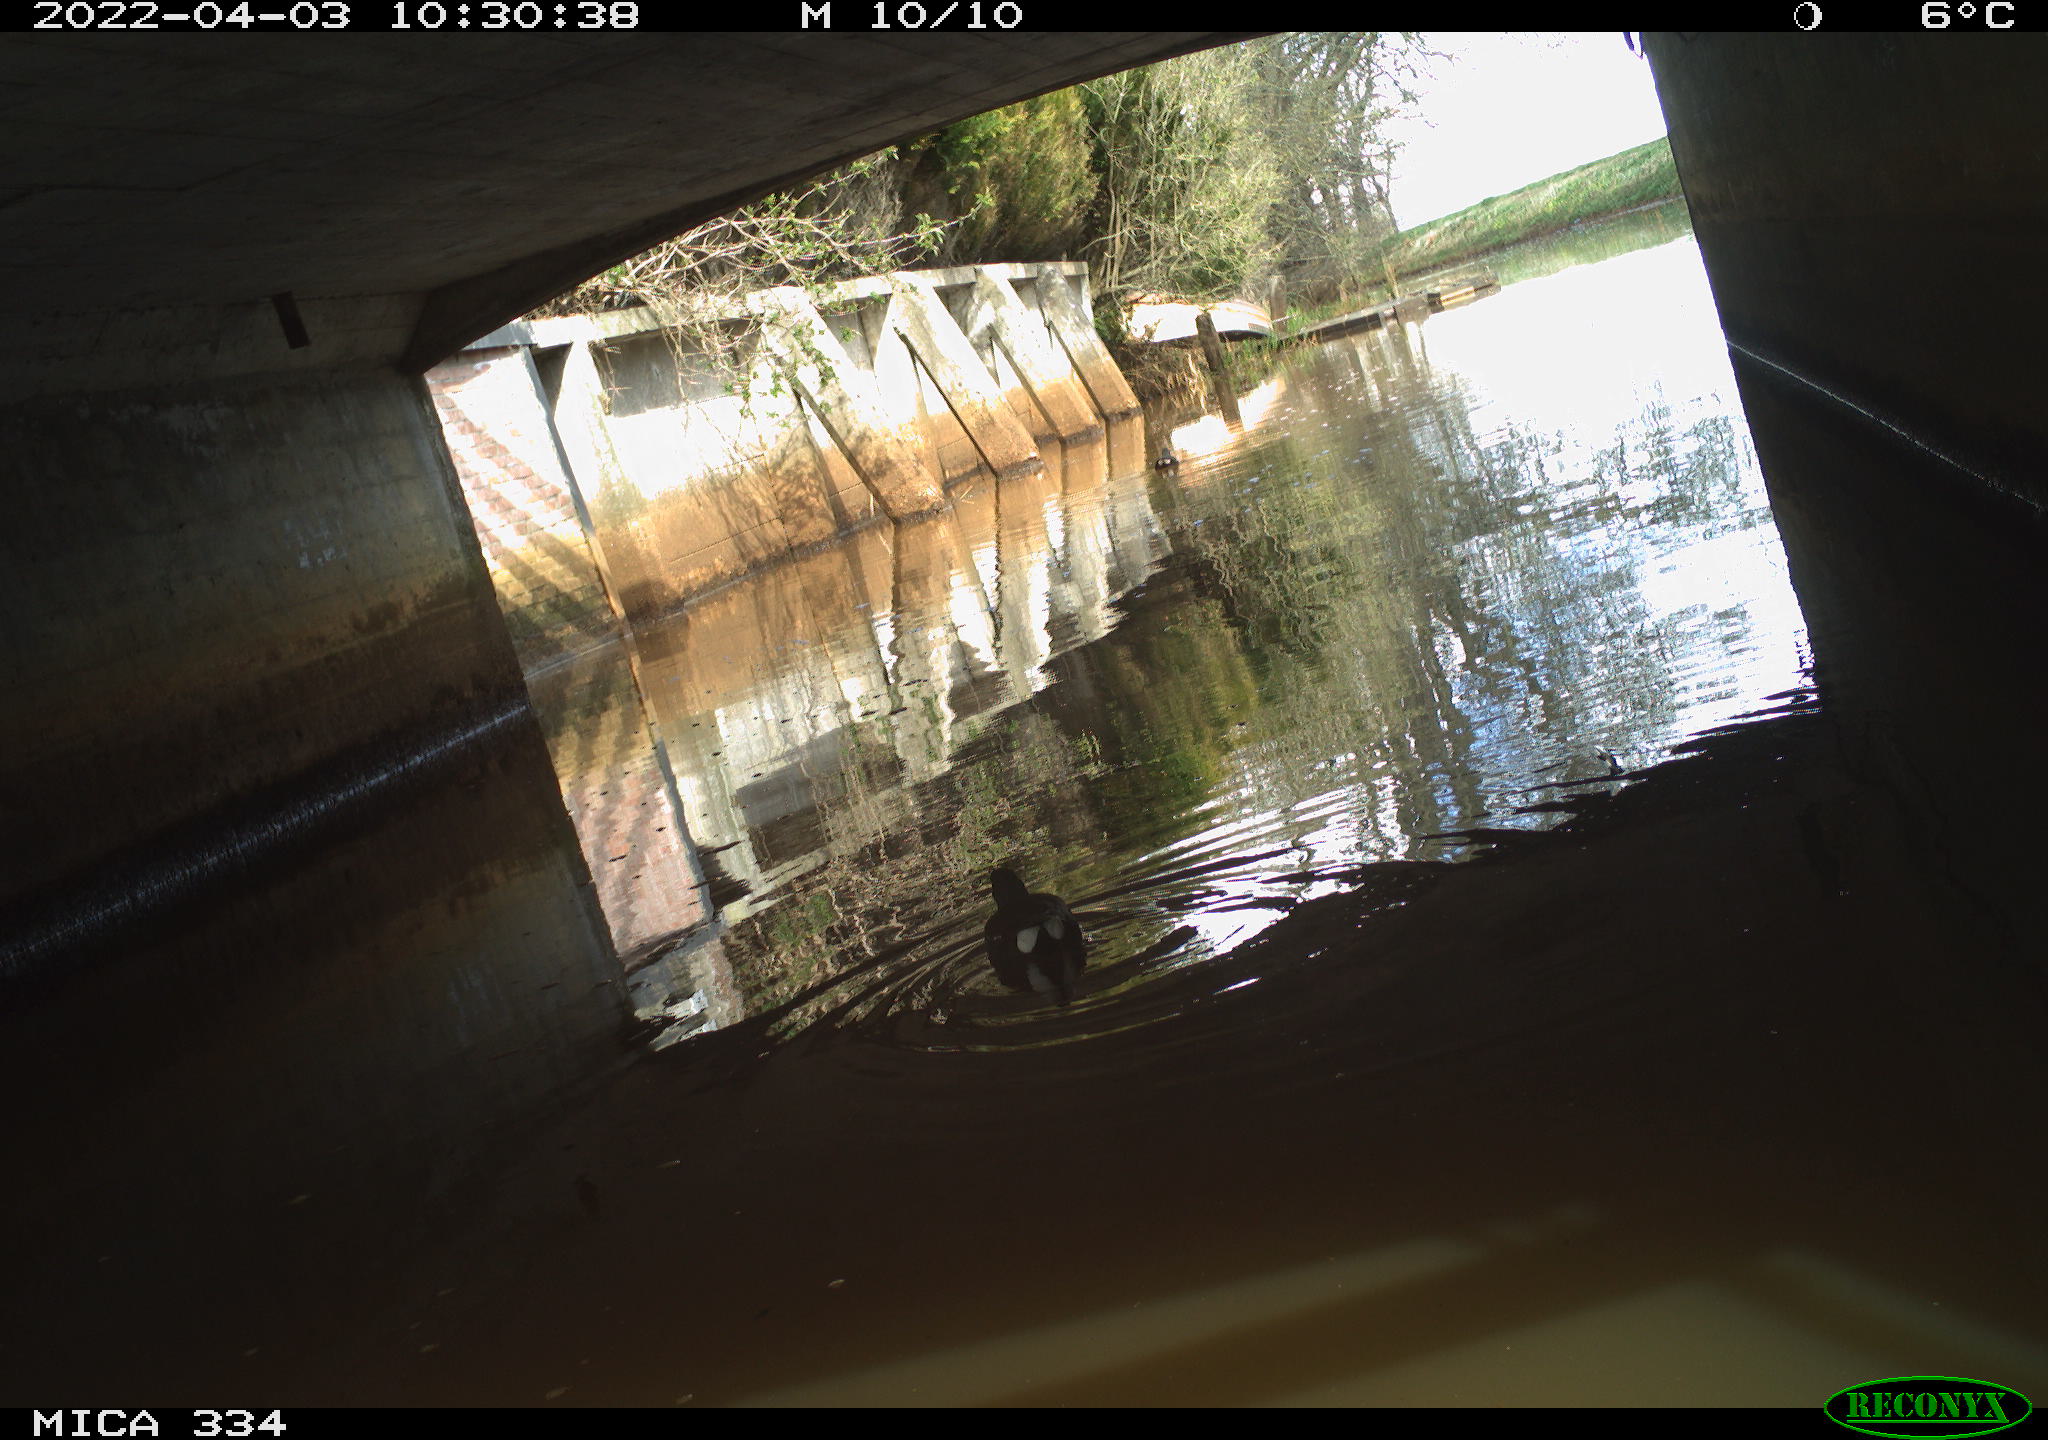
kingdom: Animalia
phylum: Chordata
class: Aves
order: Gruiformes
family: Rallidae
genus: Gallinula
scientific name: Gallinula chloropus
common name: Common moorhen
